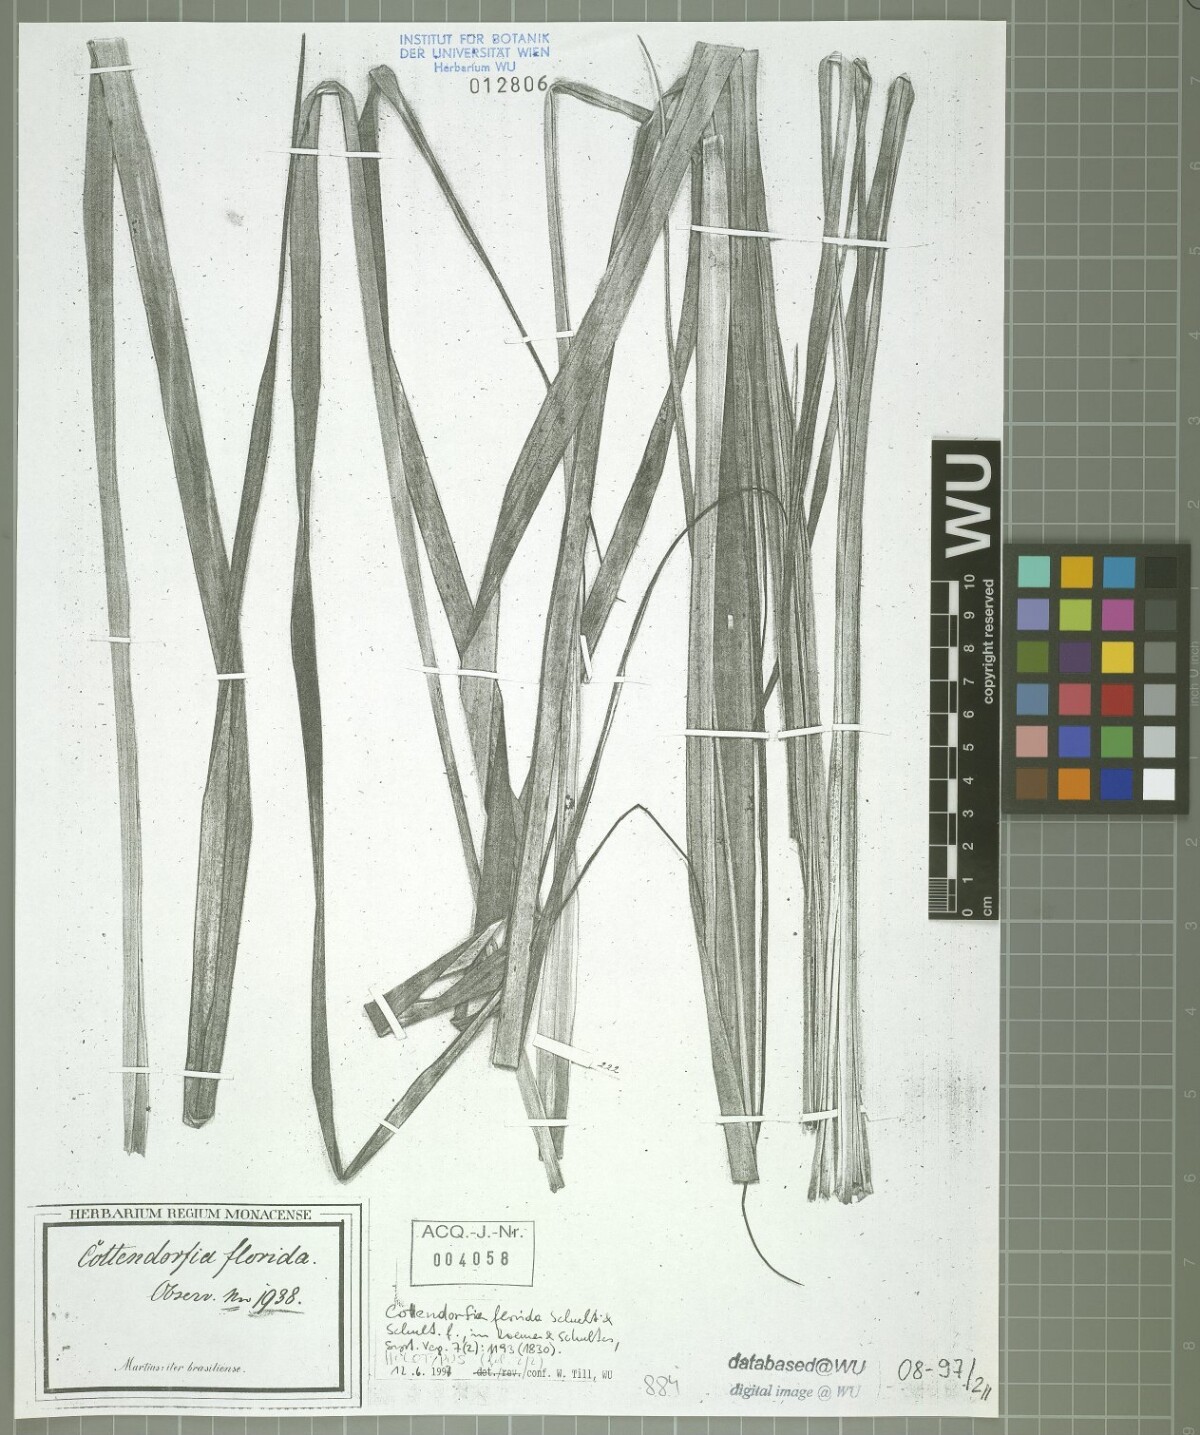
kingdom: Plantae
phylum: Tracheophyta
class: Liliopsida
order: Poales
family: Bromeliaceae
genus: Cottendorfia
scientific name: Cottendorfia florida
